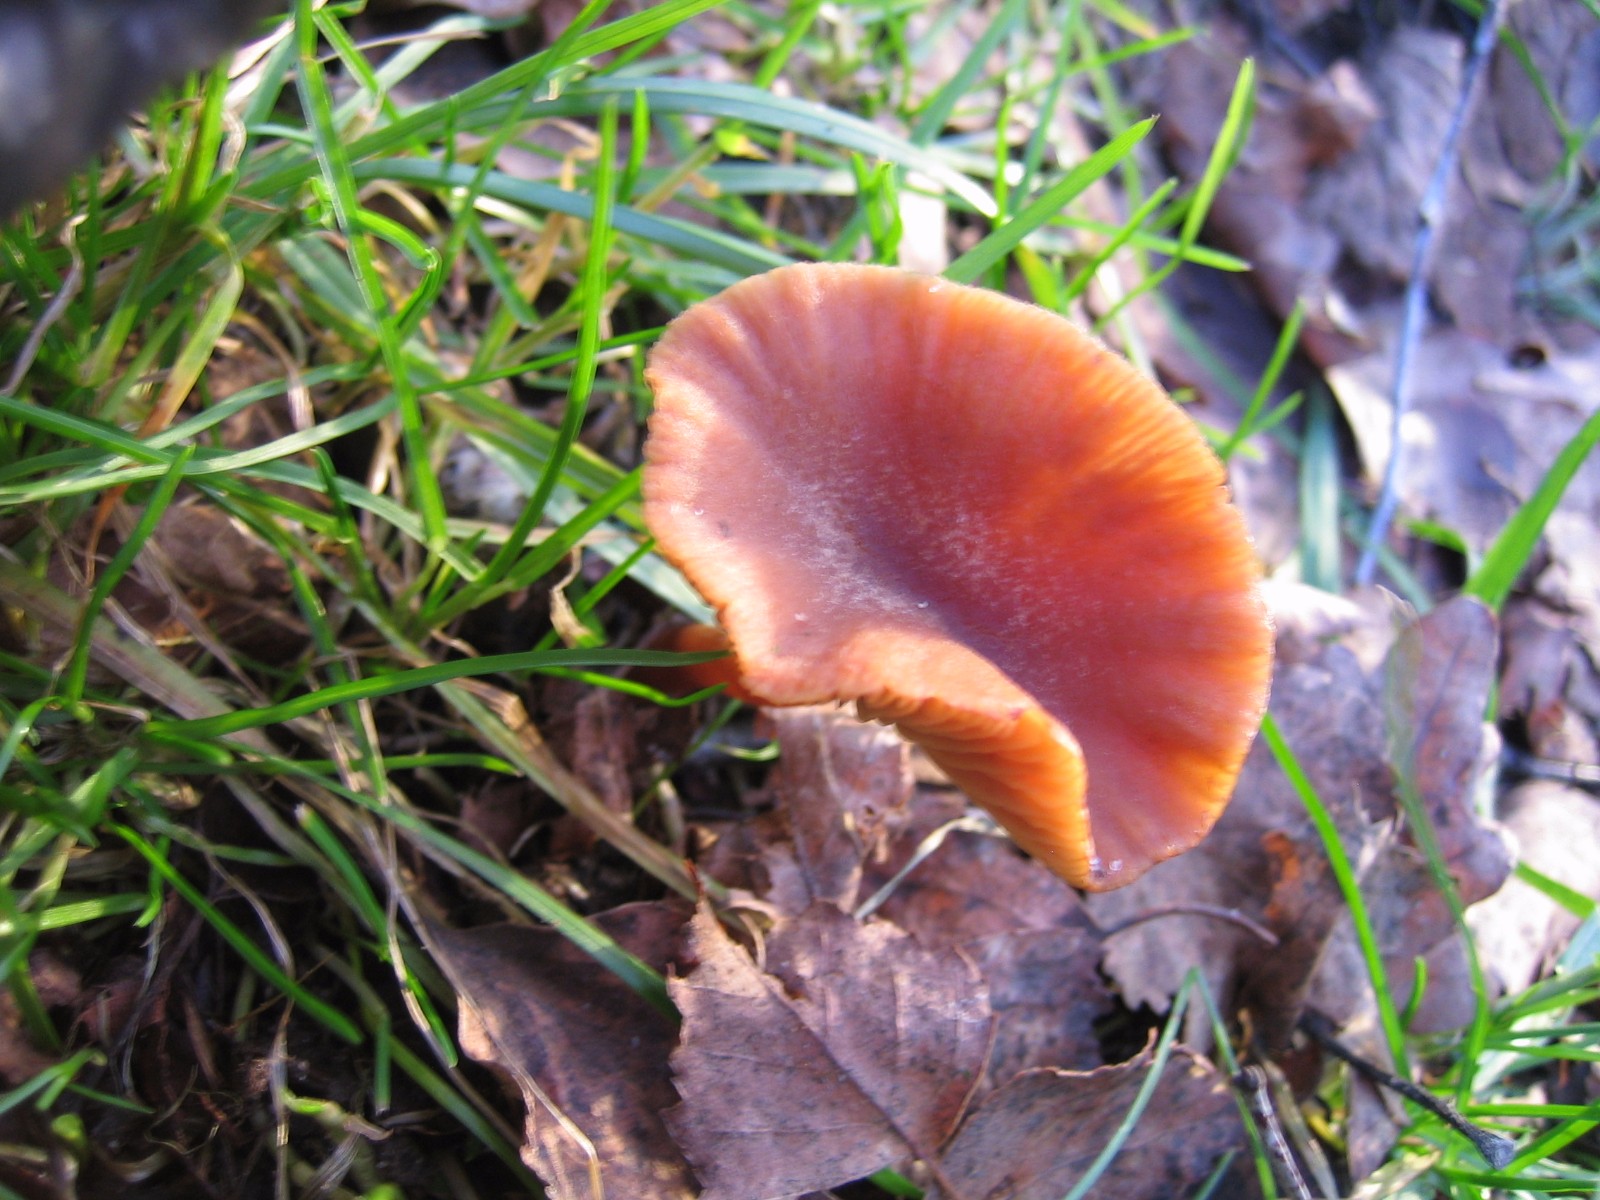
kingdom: Fungi
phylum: Basidiomycota
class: Agaricomycetes
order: Agaricales
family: Tubariaceae
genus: Tubaria
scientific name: Tubaria furfuracea
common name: kliddet fnughat
